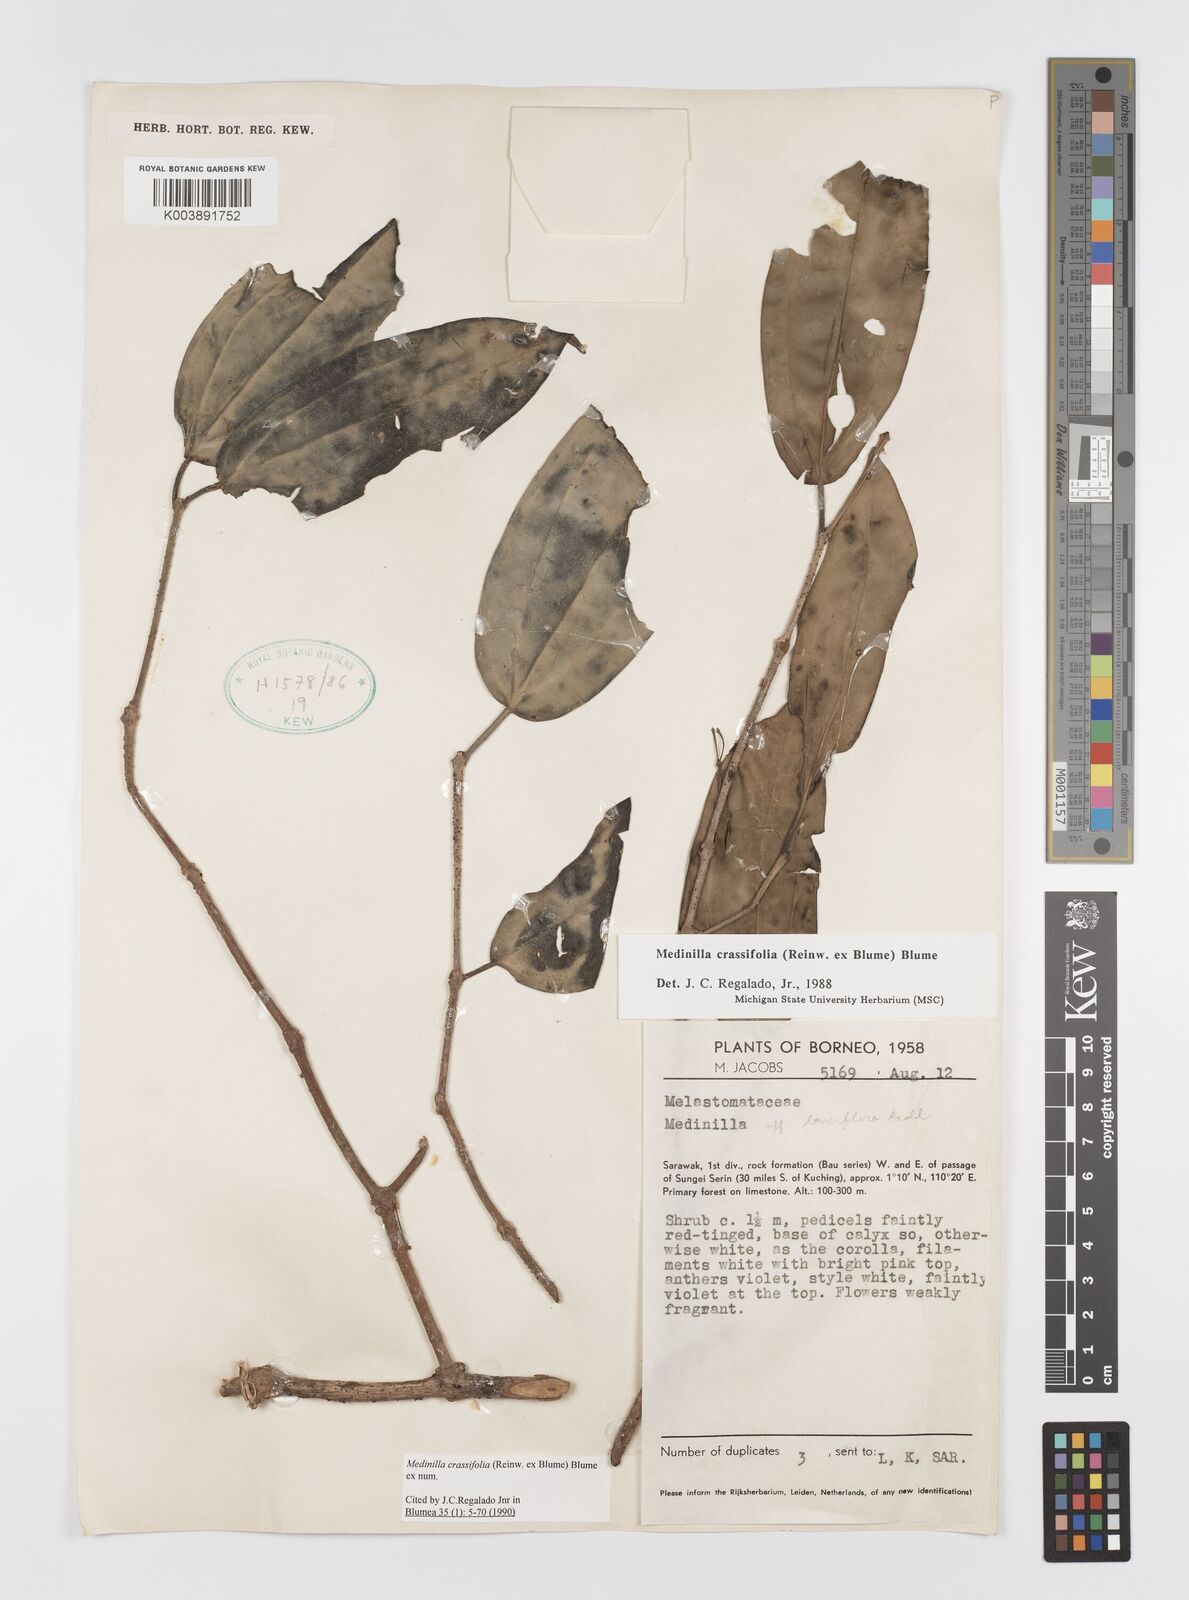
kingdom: Plantae
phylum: Tracheophyta
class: Magnoliopsida
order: Myrtales
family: Melastomataceae
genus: Medinilla
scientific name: Medinilla crassifolia
